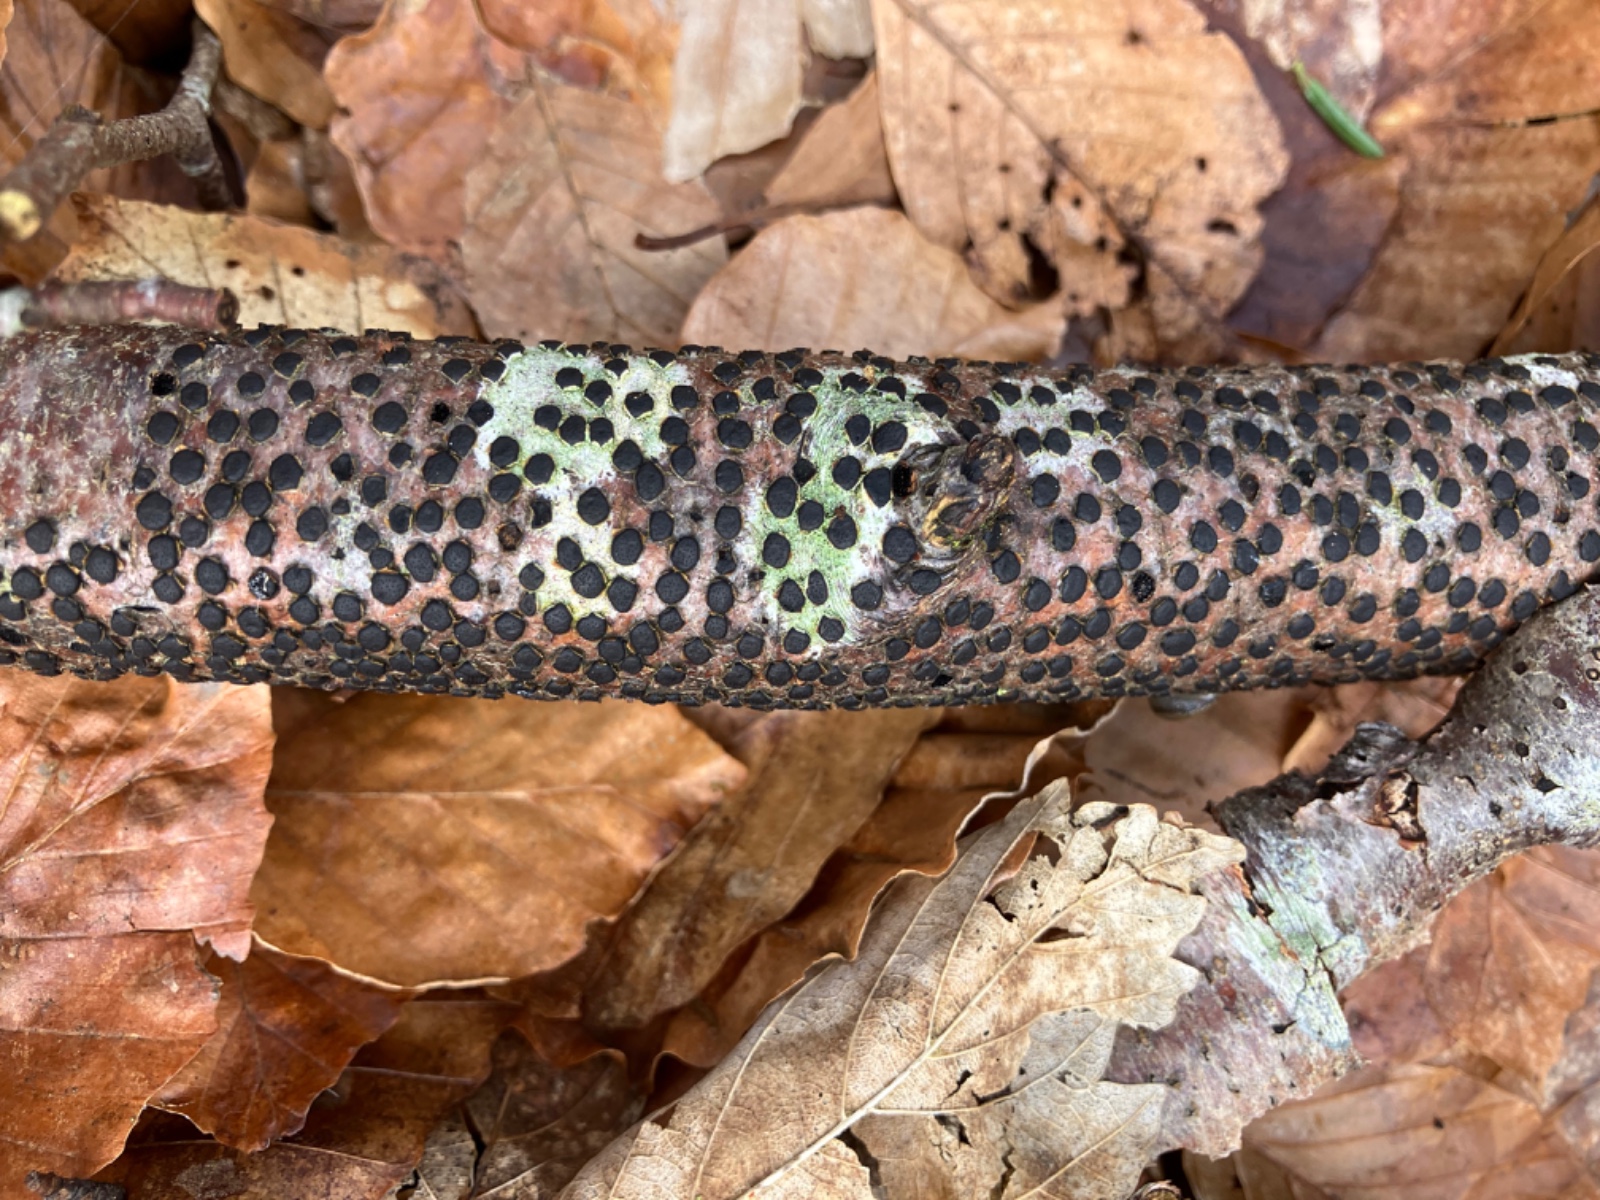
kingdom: Fungi
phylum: Ascomycota
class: Sordariomycetes
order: Xylariales
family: Diatrypaceae
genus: Diatrype
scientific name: Diatrype disciformis
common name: kant-kulskorpe
